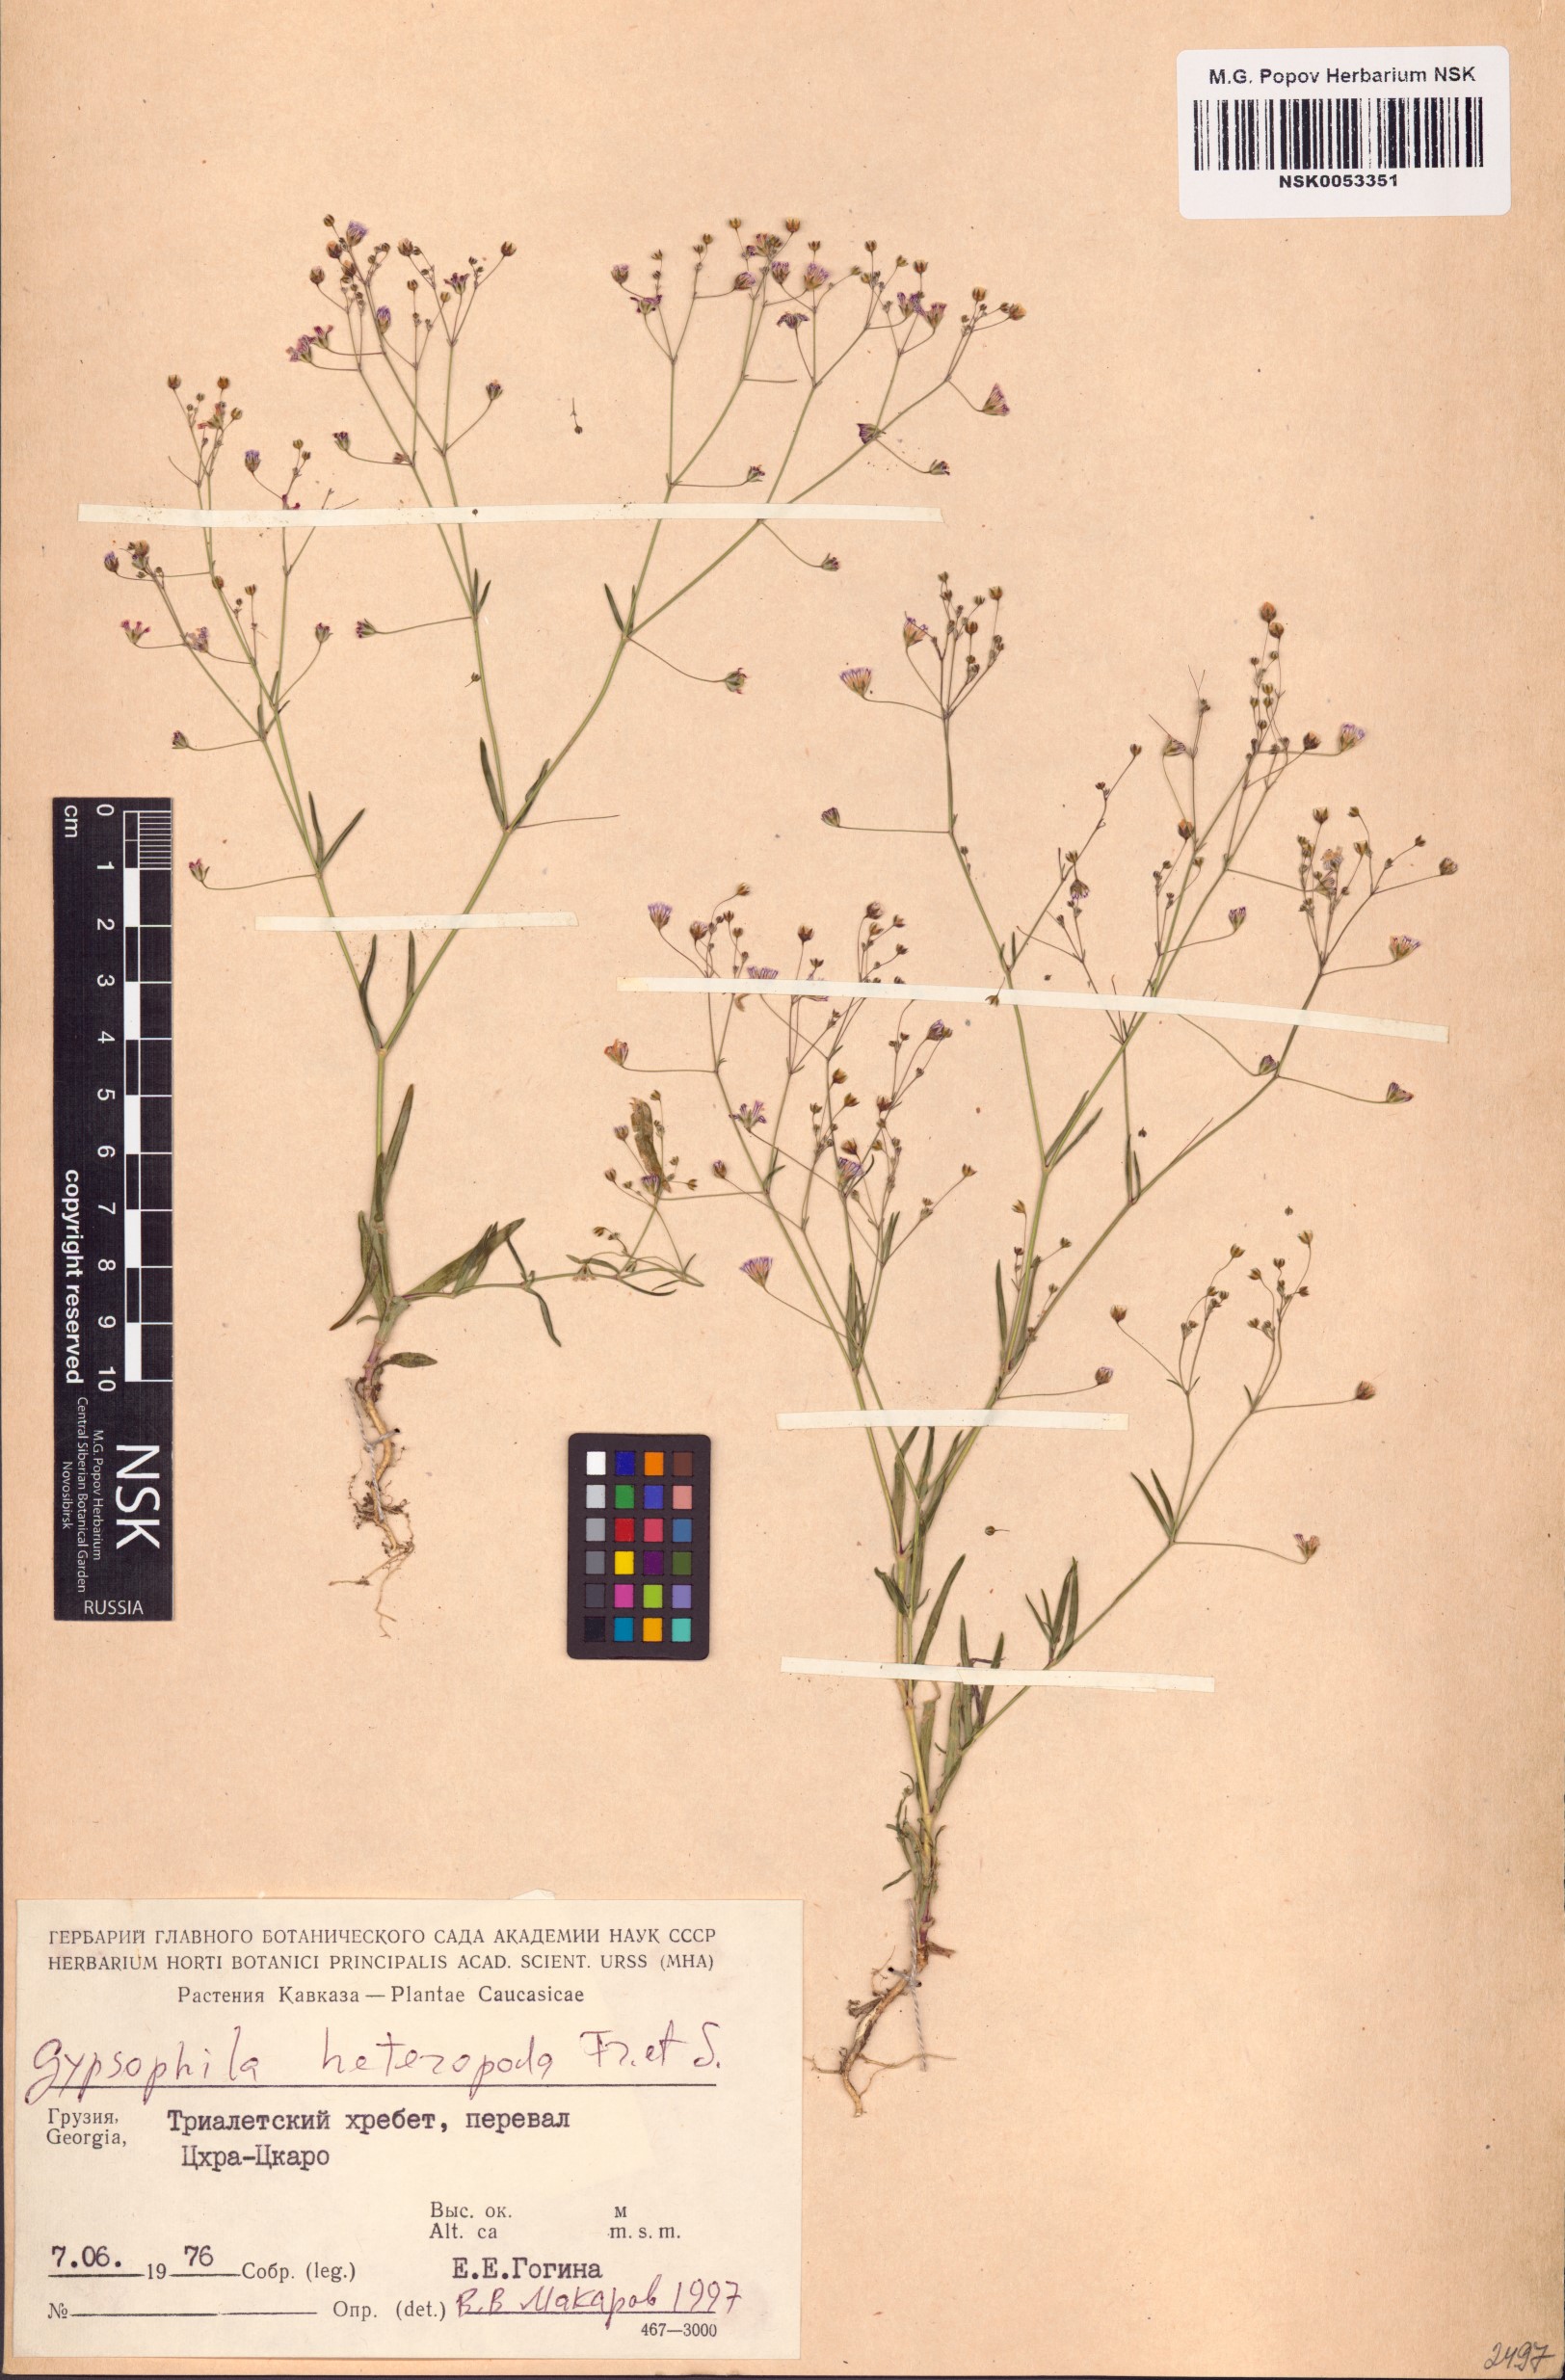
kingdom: Plantae
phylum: Tracheophyta
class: Magnoliopsida
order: Caryophyllales
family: Caryophyllaceae
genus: Gypsophila
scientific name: Gypsophila heteropoda
